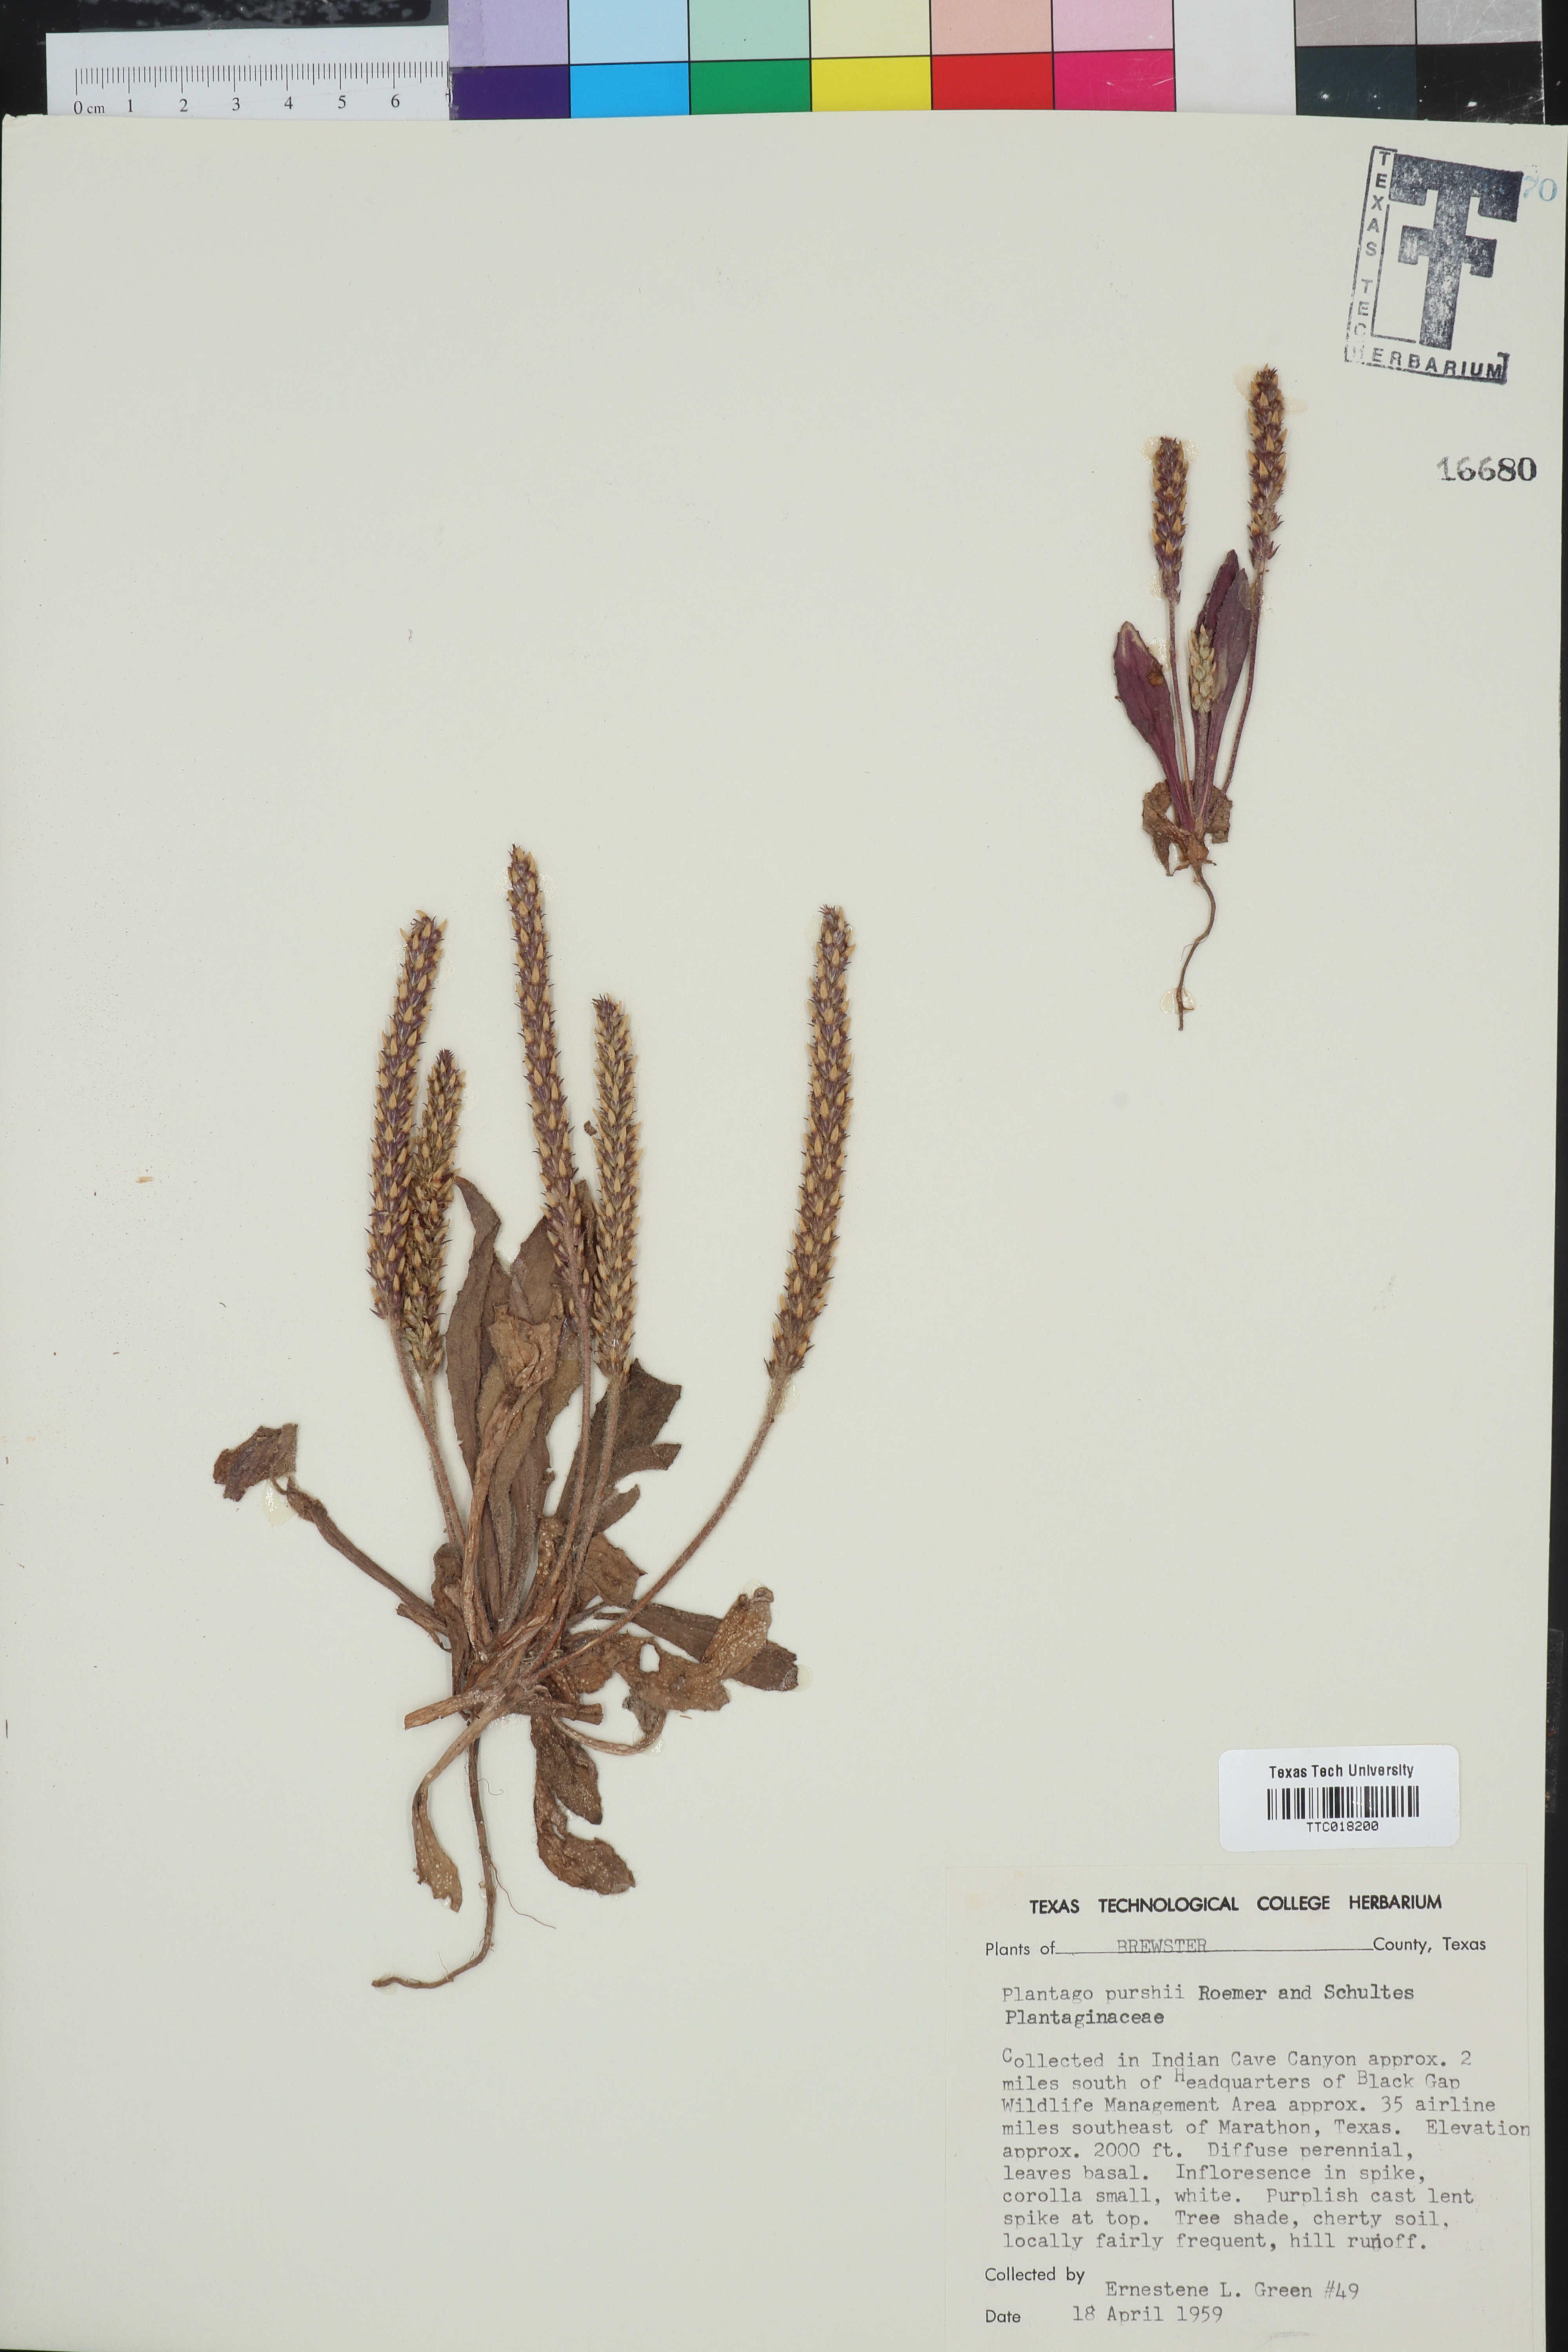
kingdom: Plantae
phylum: Tracheophyta
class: Magnoliopsida
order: Lamiales
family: Plantaginaceae
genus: Plantago
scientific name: Plantago patagonica
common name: Patagonia indian-wheat
